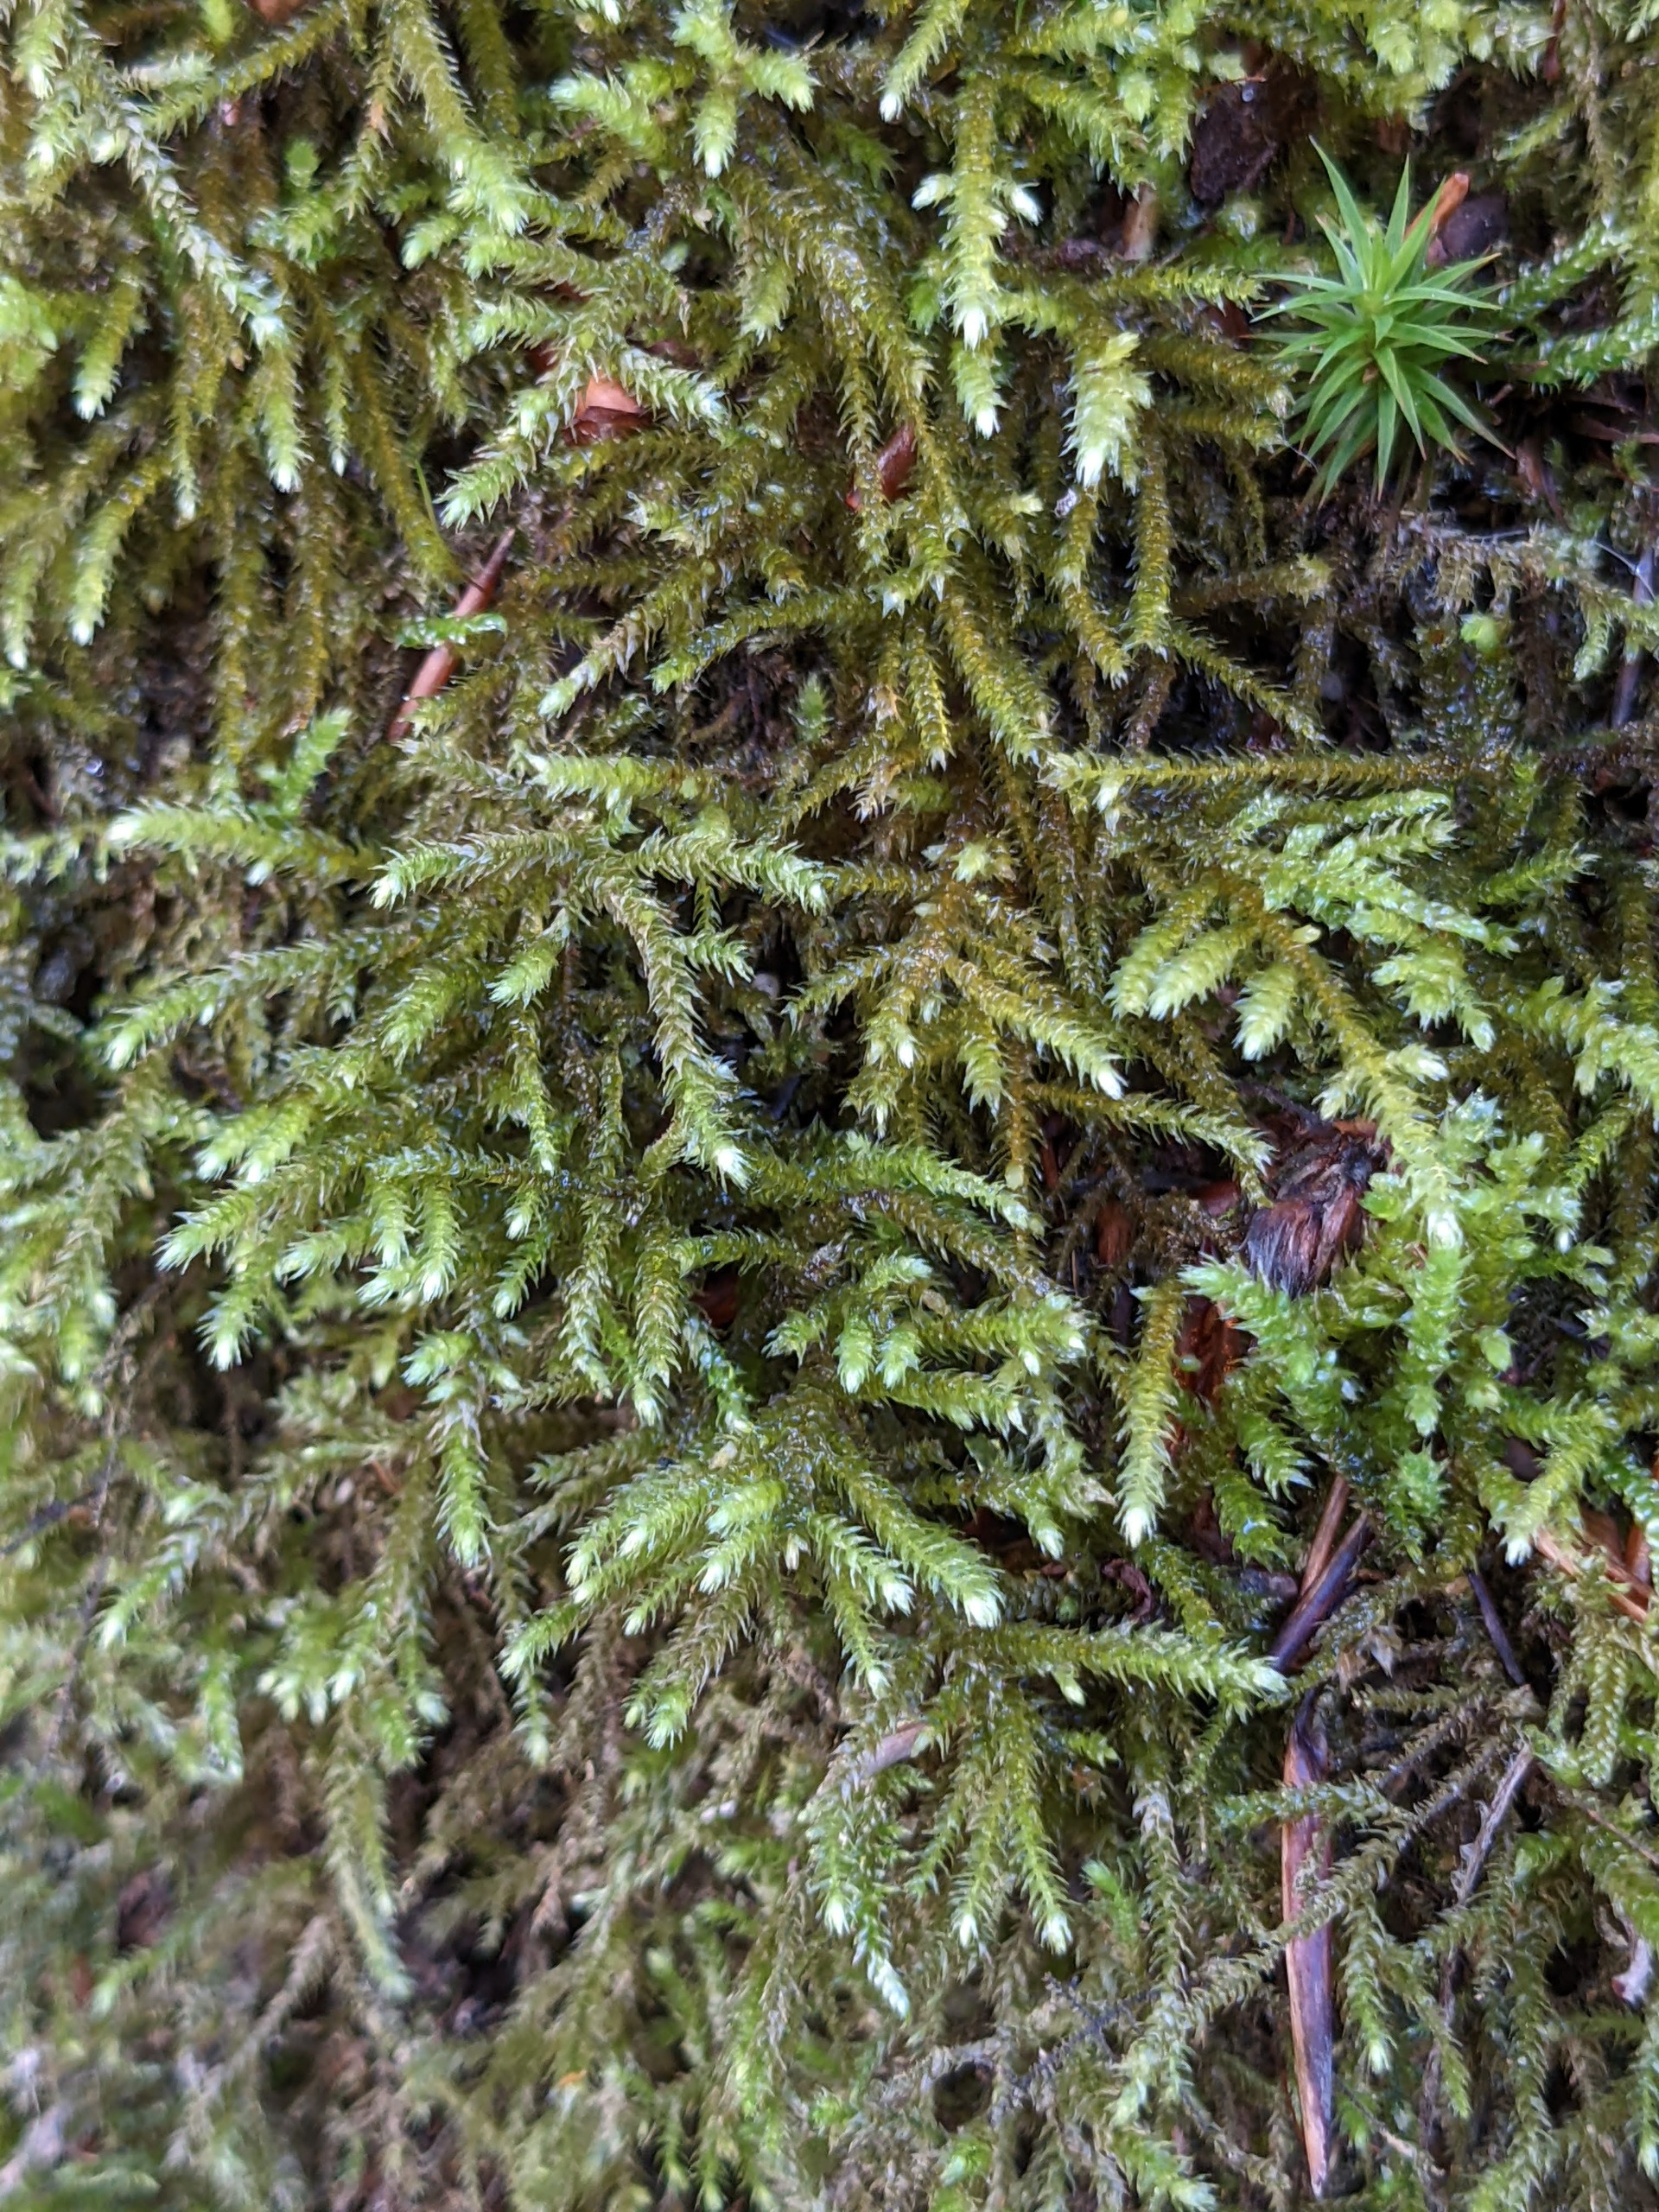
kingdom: Plantae
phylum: Bryophyta
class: Bryopsida
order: Hypnales
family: Brachytheciaceae
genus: Eurhynchium
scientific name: Eurhynchium striatum
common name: Stribet næbmos
